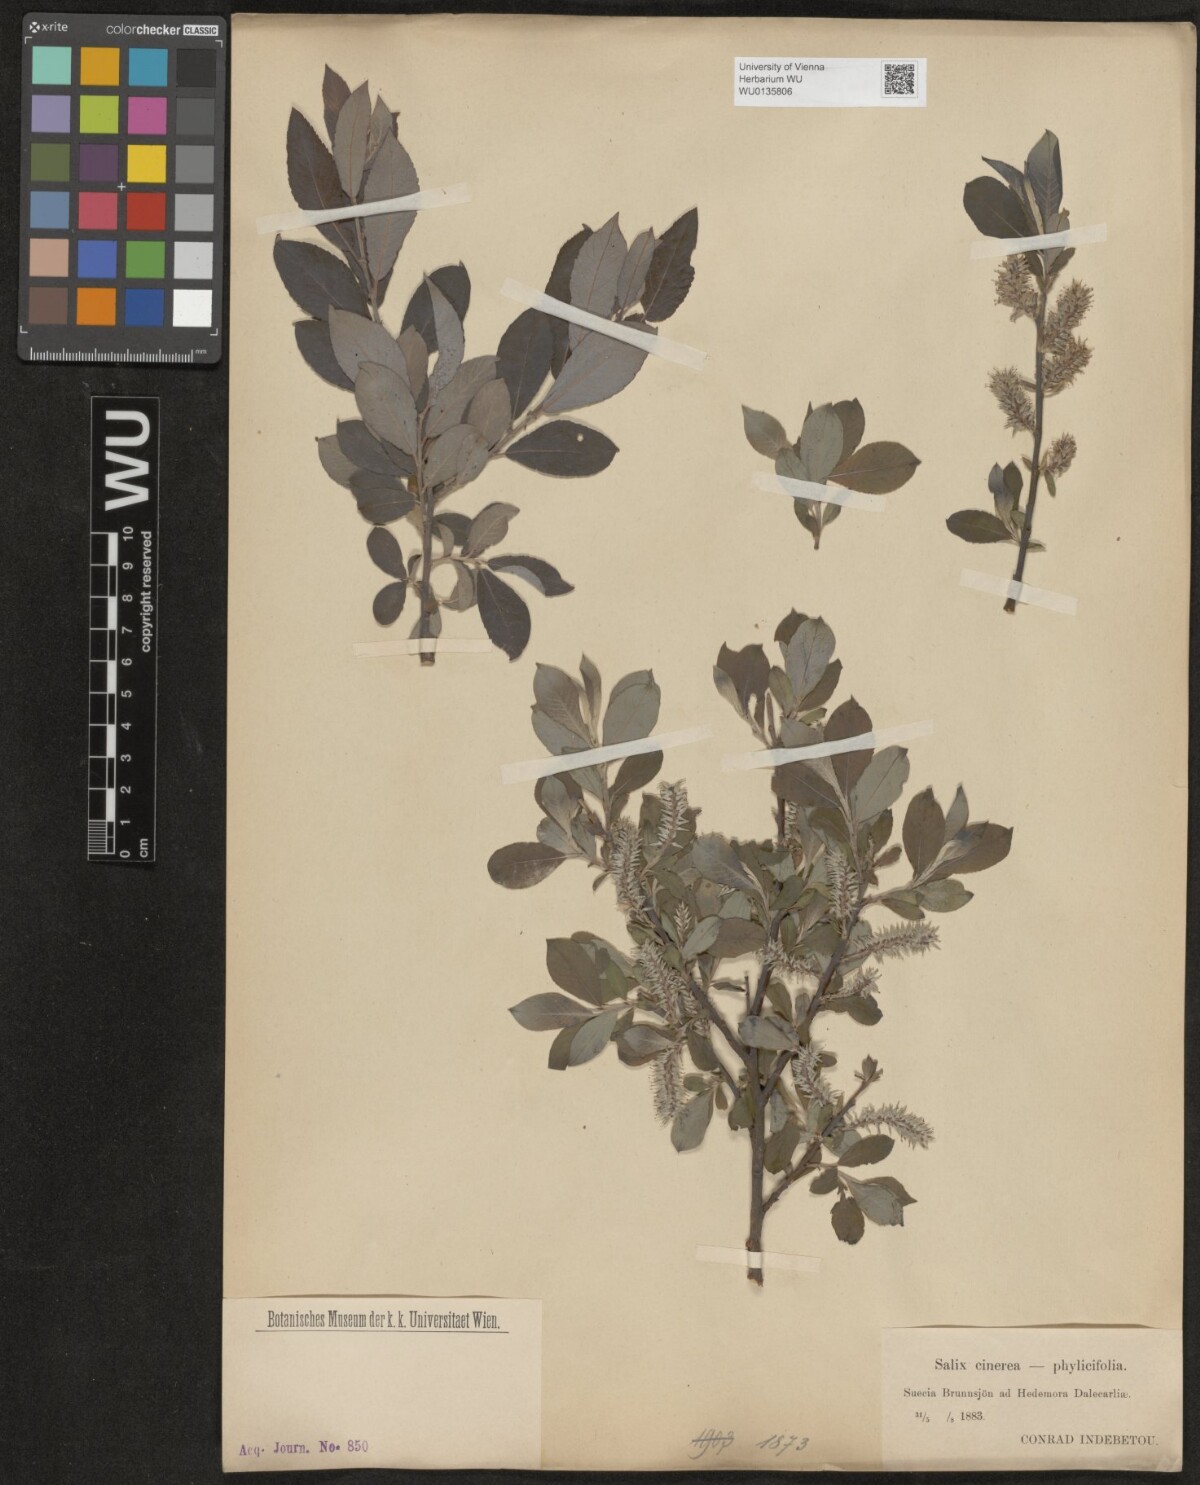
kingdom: Plantae
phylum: Tracheophyta
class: Magnoliopsida
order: Malpighiales
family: Salicaceae
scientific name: Salicaceae
